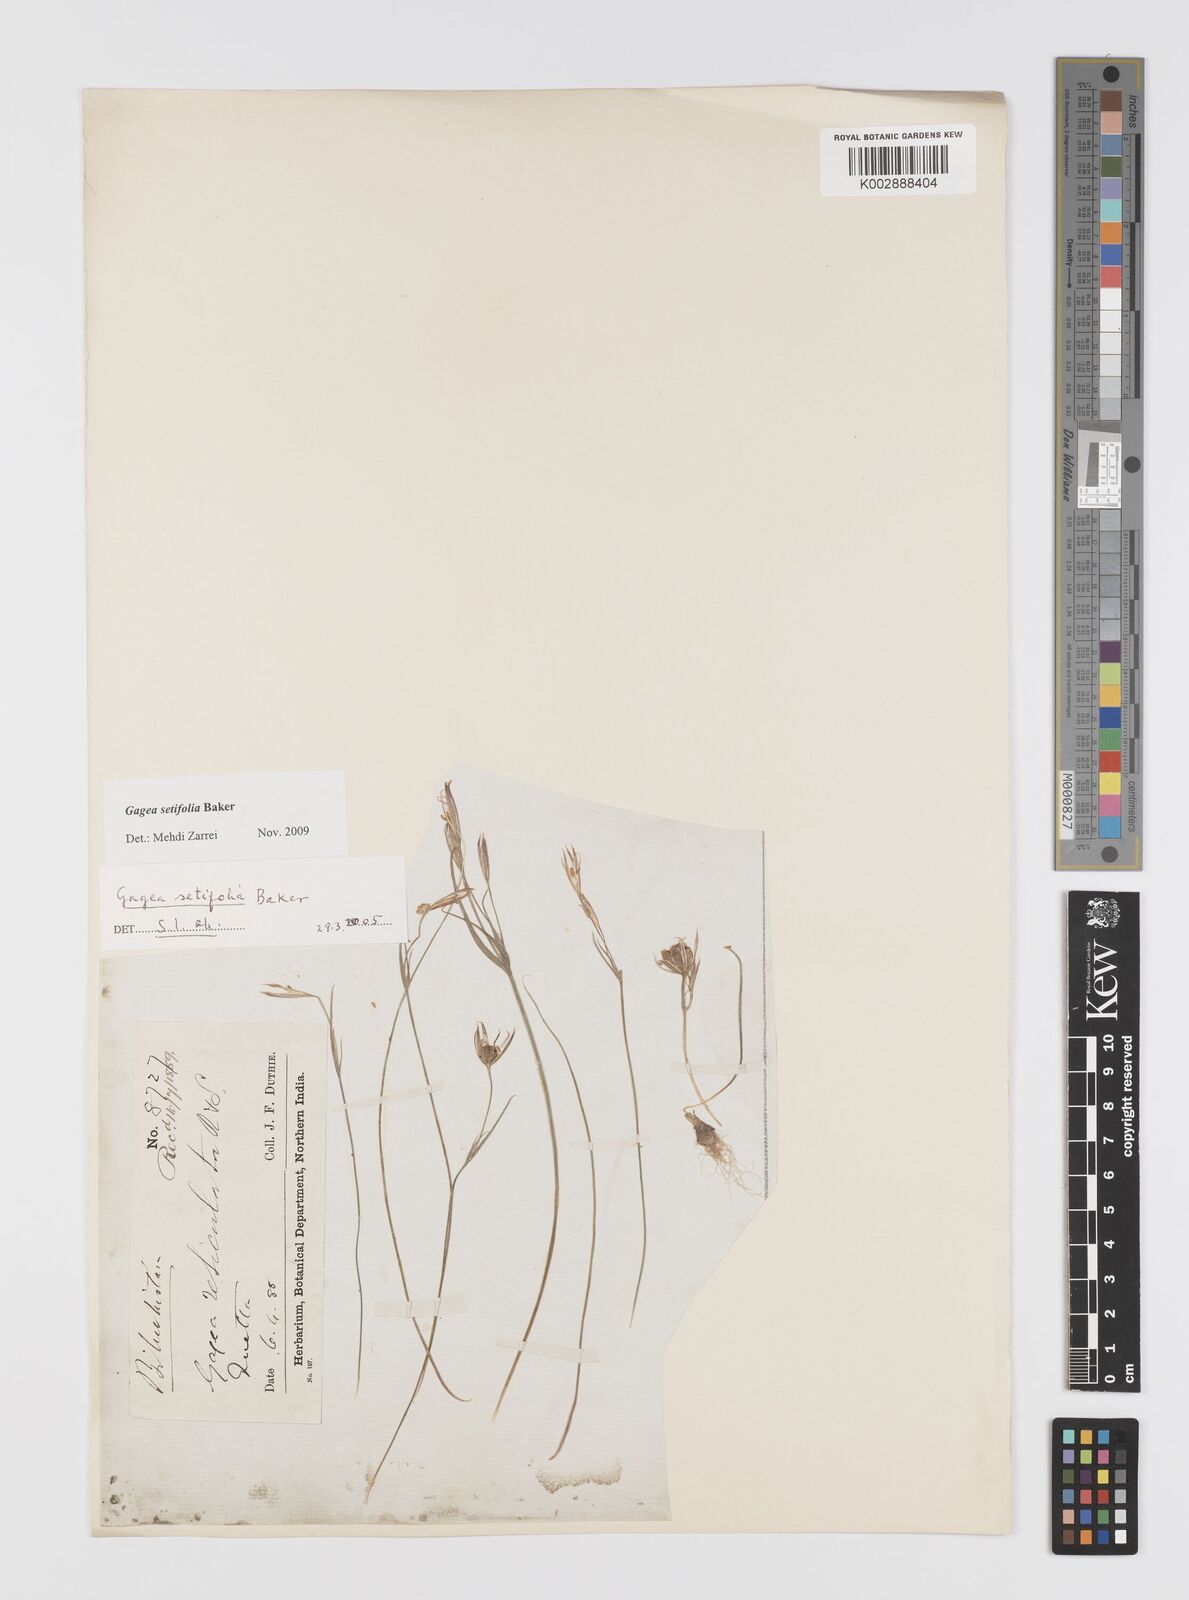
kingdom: Plantae
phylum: Tracheophyta
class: Liliopsida
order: Liliales
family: Liliaceae
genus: Gagea
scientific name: Gagea reticulata
